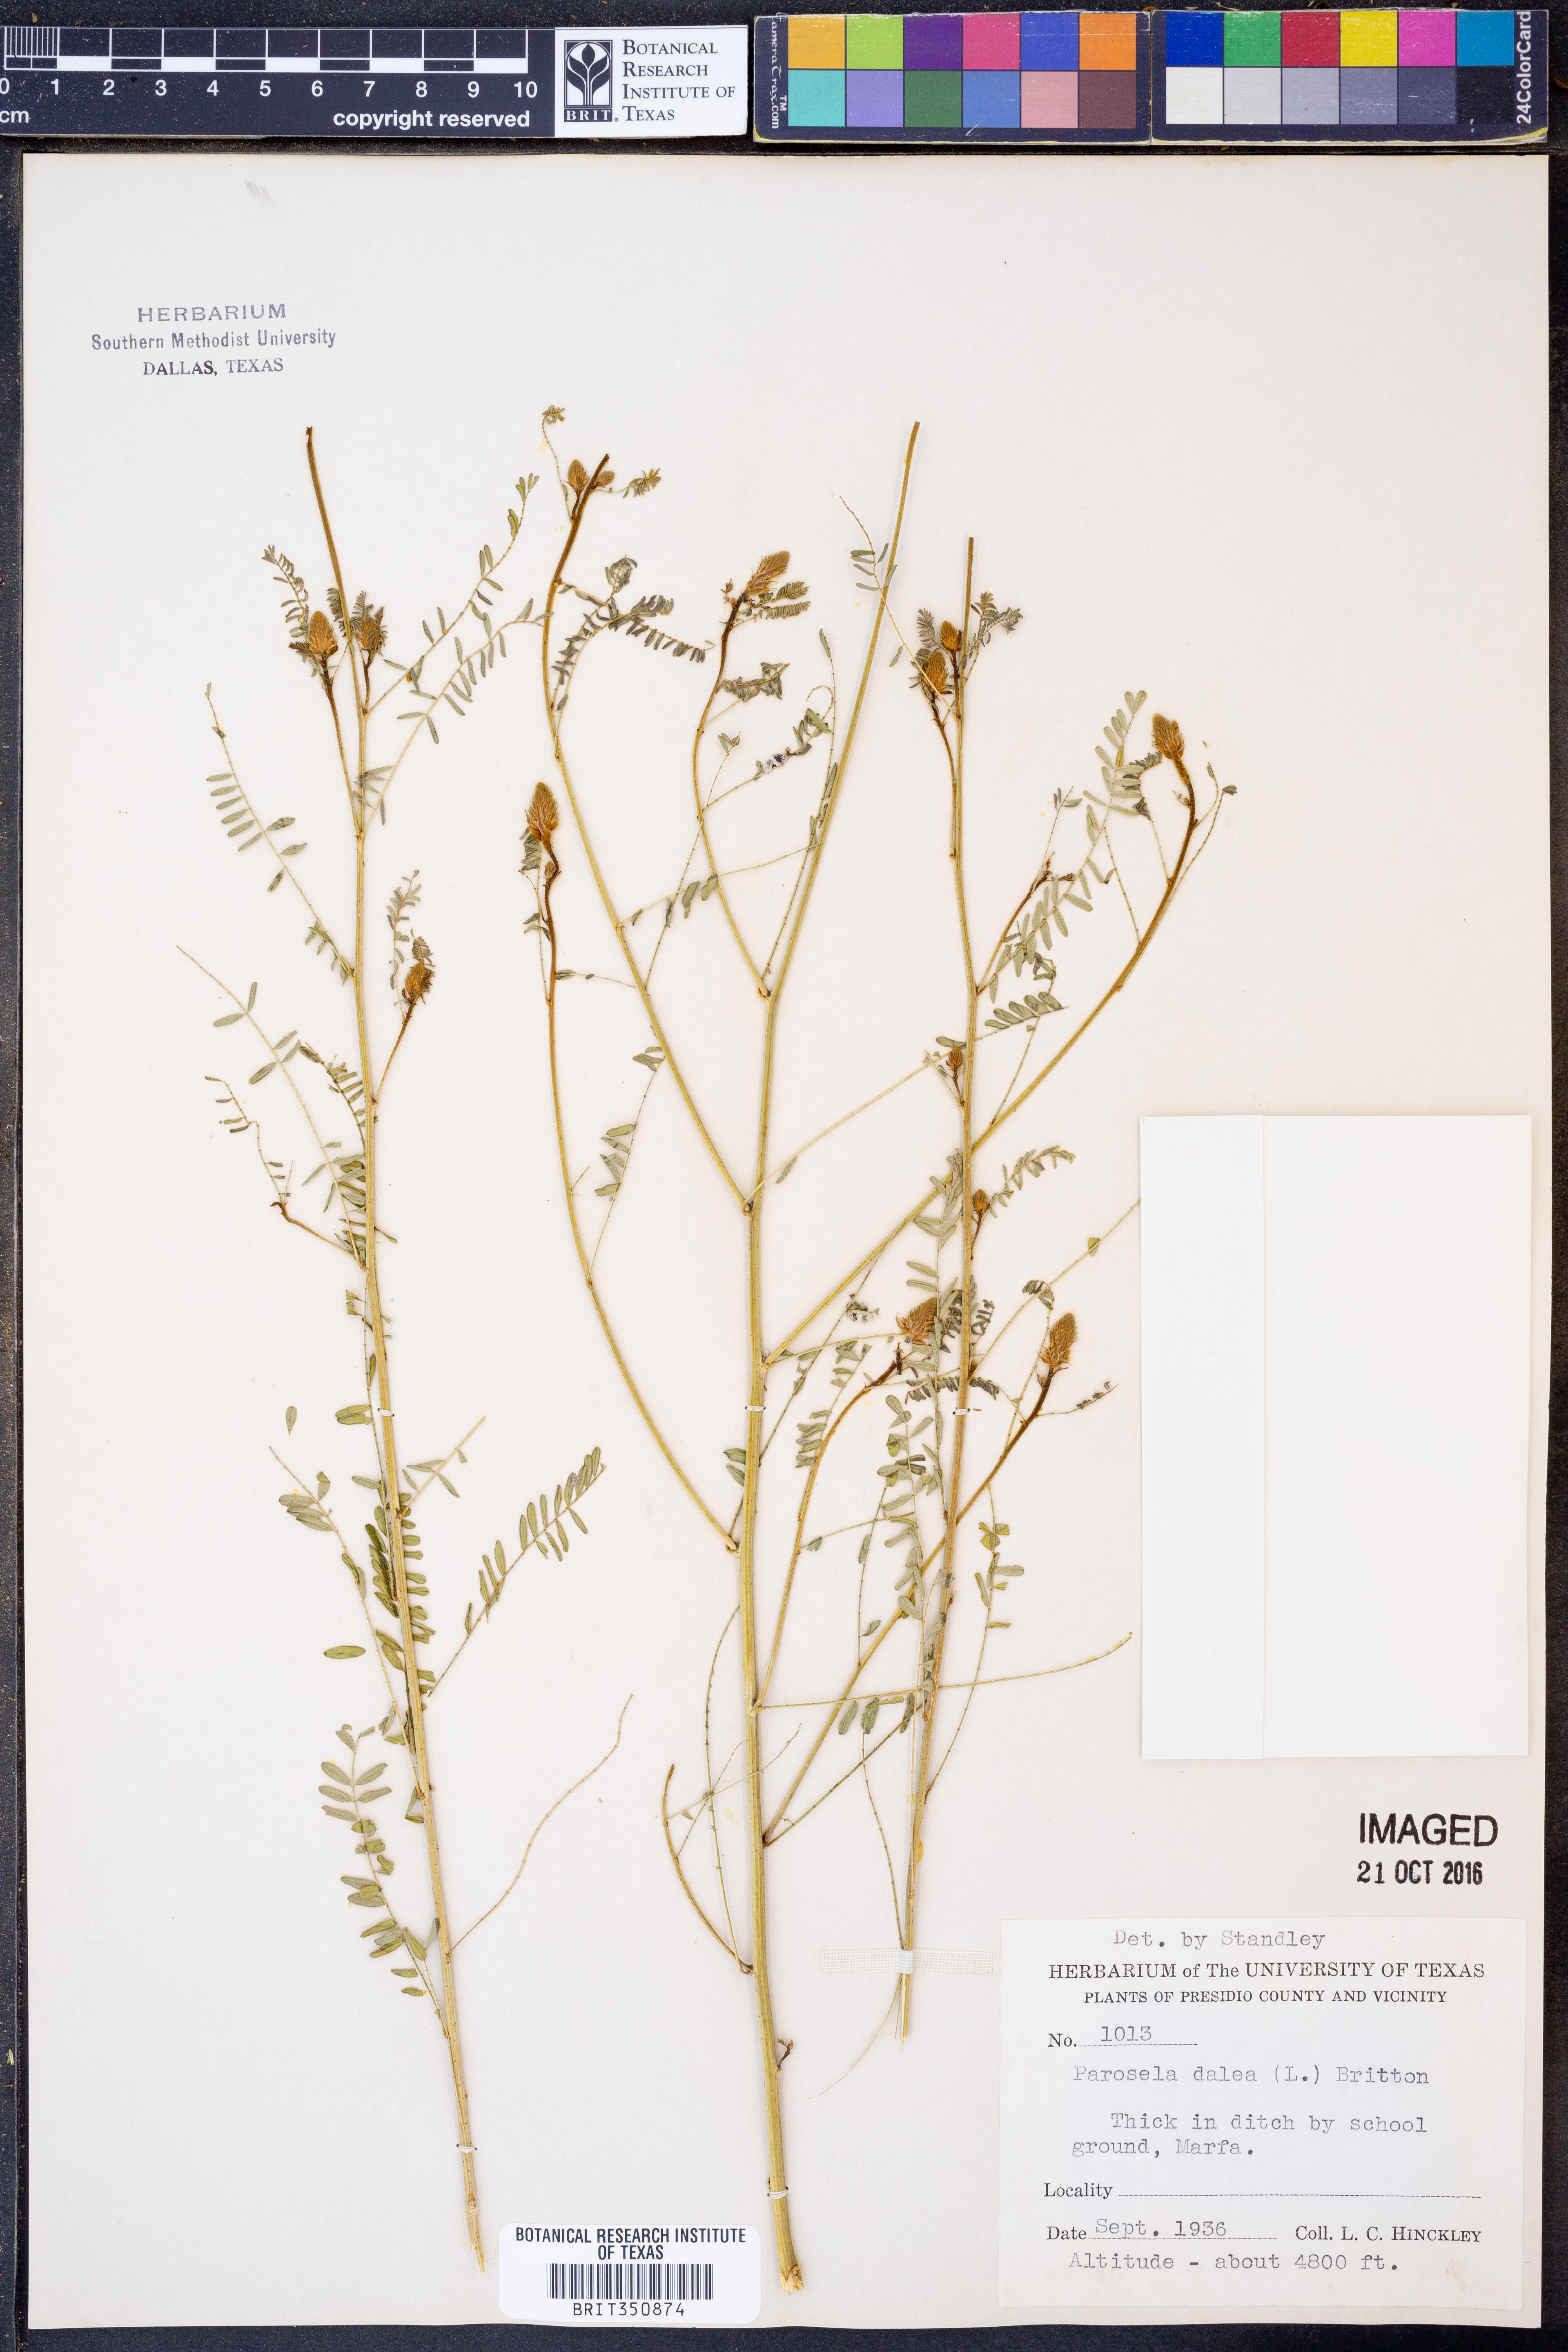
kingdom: Plantae
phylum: Tracheophyta
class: Magnoliopsida
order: Fabales
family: Fabaceae
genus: Dalea
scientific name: Dalea cliffortiana
